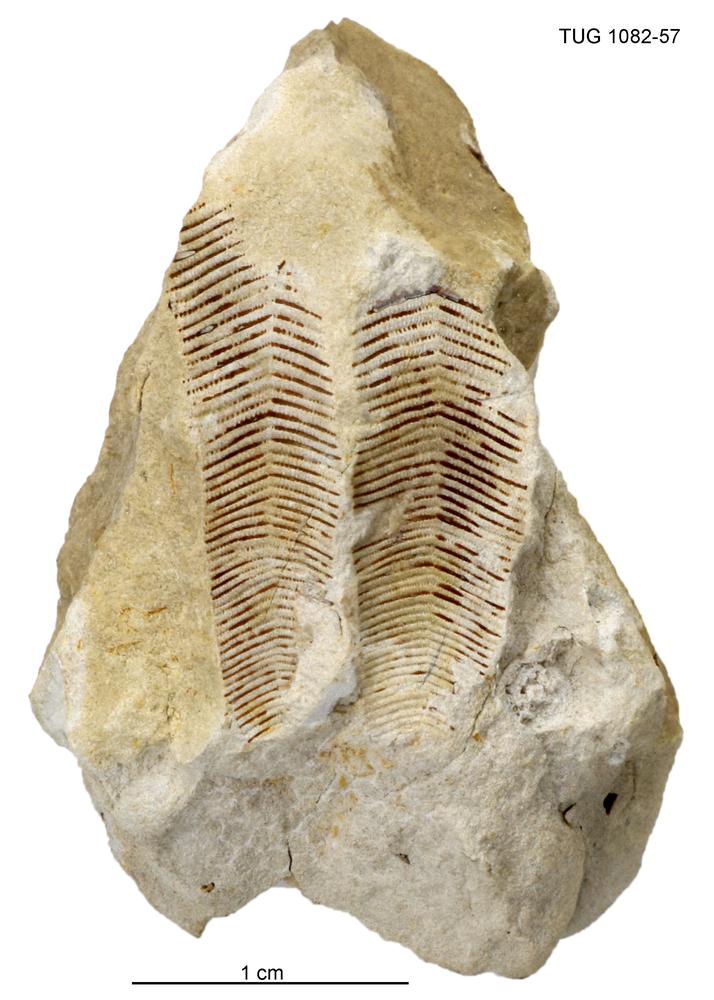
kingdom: Animalia
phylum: Cnidaria
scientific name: Cnidaria
